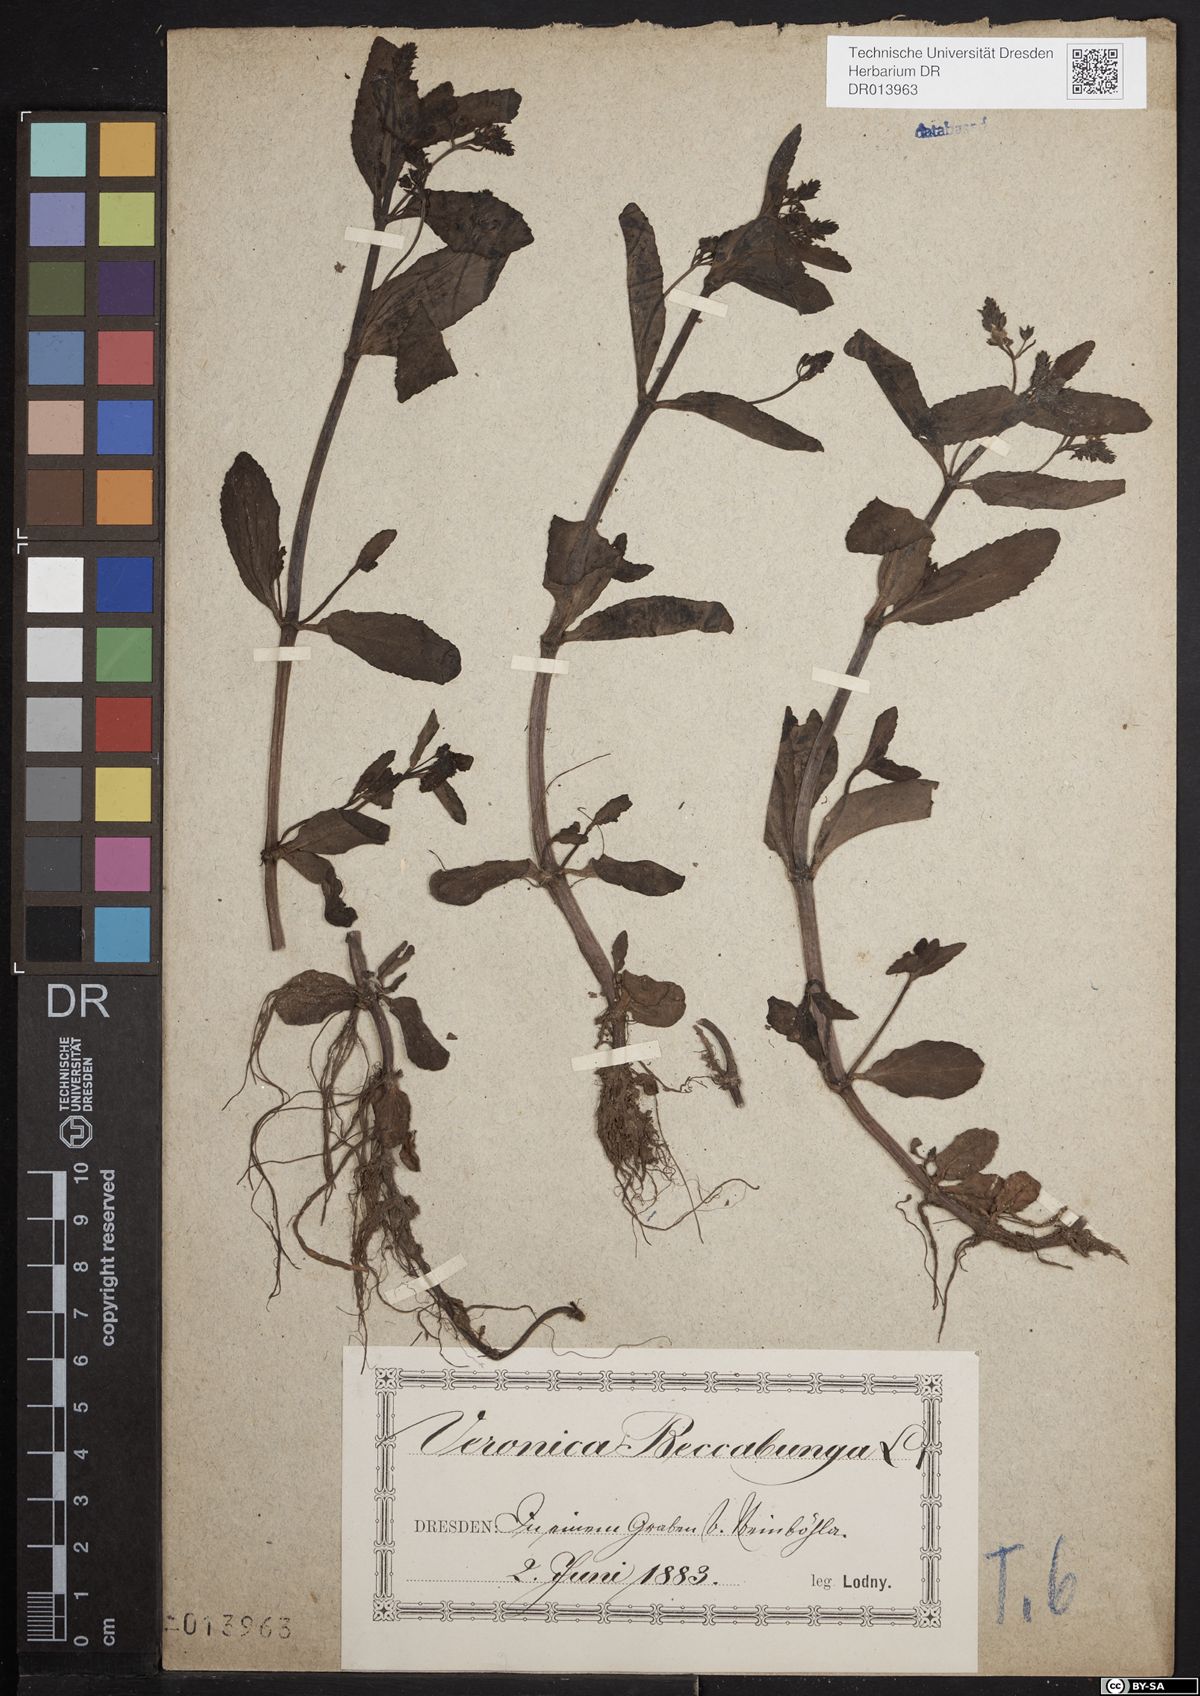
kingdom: Plantae
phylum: Tracheophyta
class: Magnoliopsida
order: Lamiales
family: Plantaginaceae
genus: Veronica
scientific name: Veronica beccabunga
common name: Brooklime
